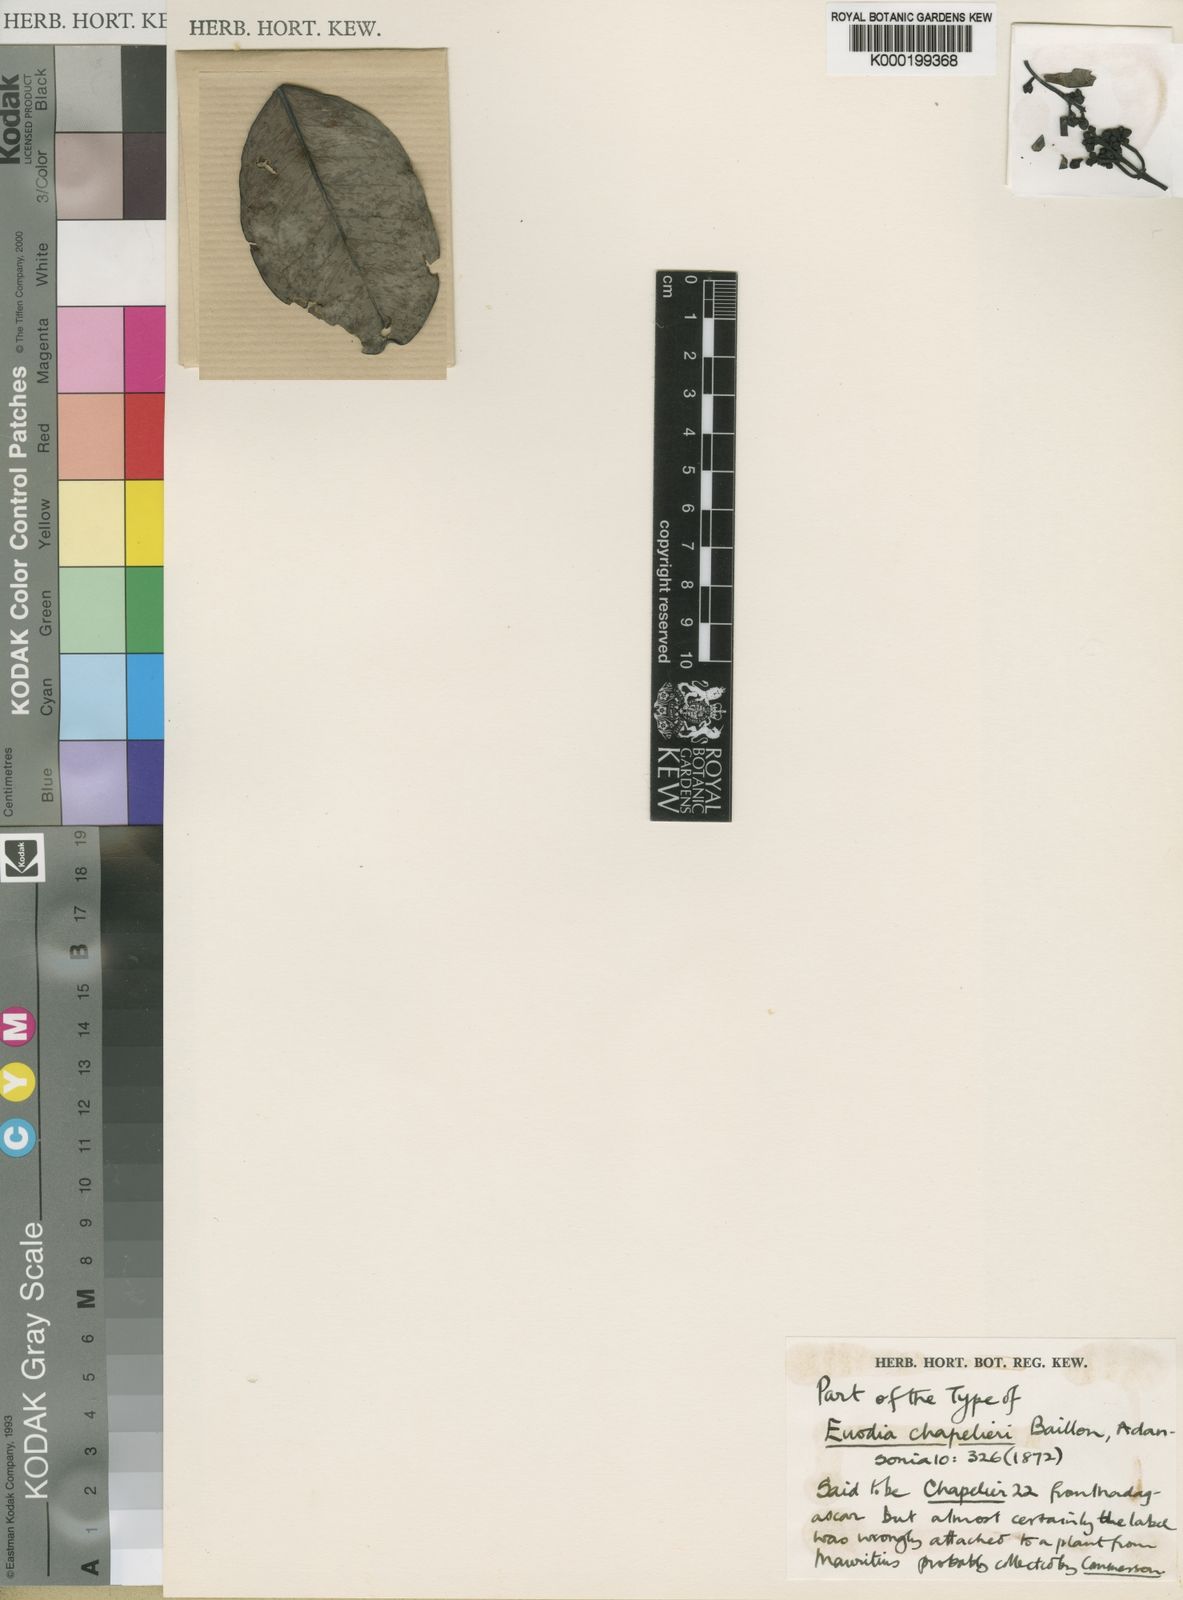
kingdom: Plantae
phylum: Tracheophyta
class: Magnoliopsida
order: Sapindales
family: Rutaceae
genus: Melicope
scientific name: Melicope chapelieri
